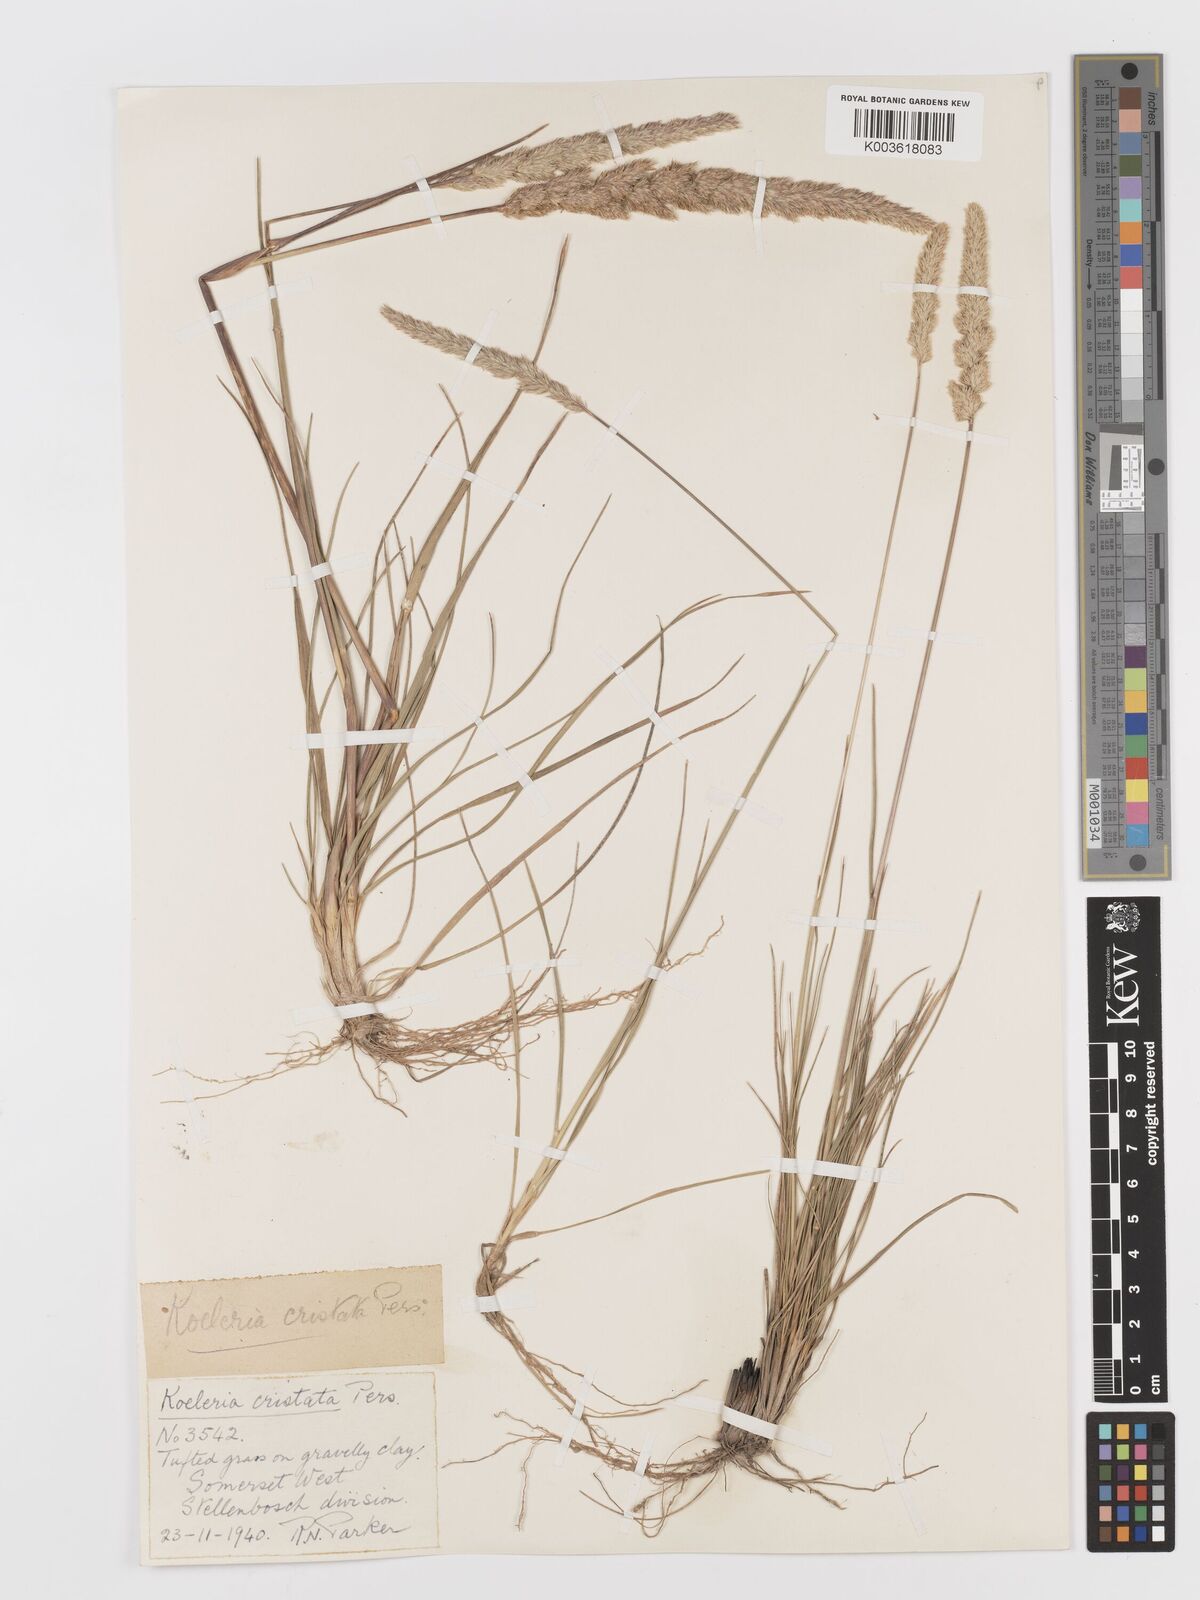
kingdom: Plantae
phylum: Tracheophyta
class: Liliopsida
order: Poales
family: Poaceae
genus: Koeleria
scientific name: Koeleria capensis
